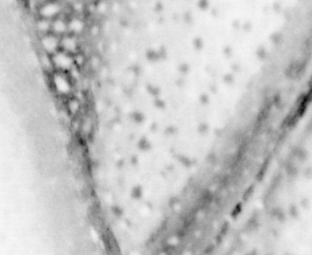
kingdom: Animalia
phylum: Chordata
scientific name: Chordata
